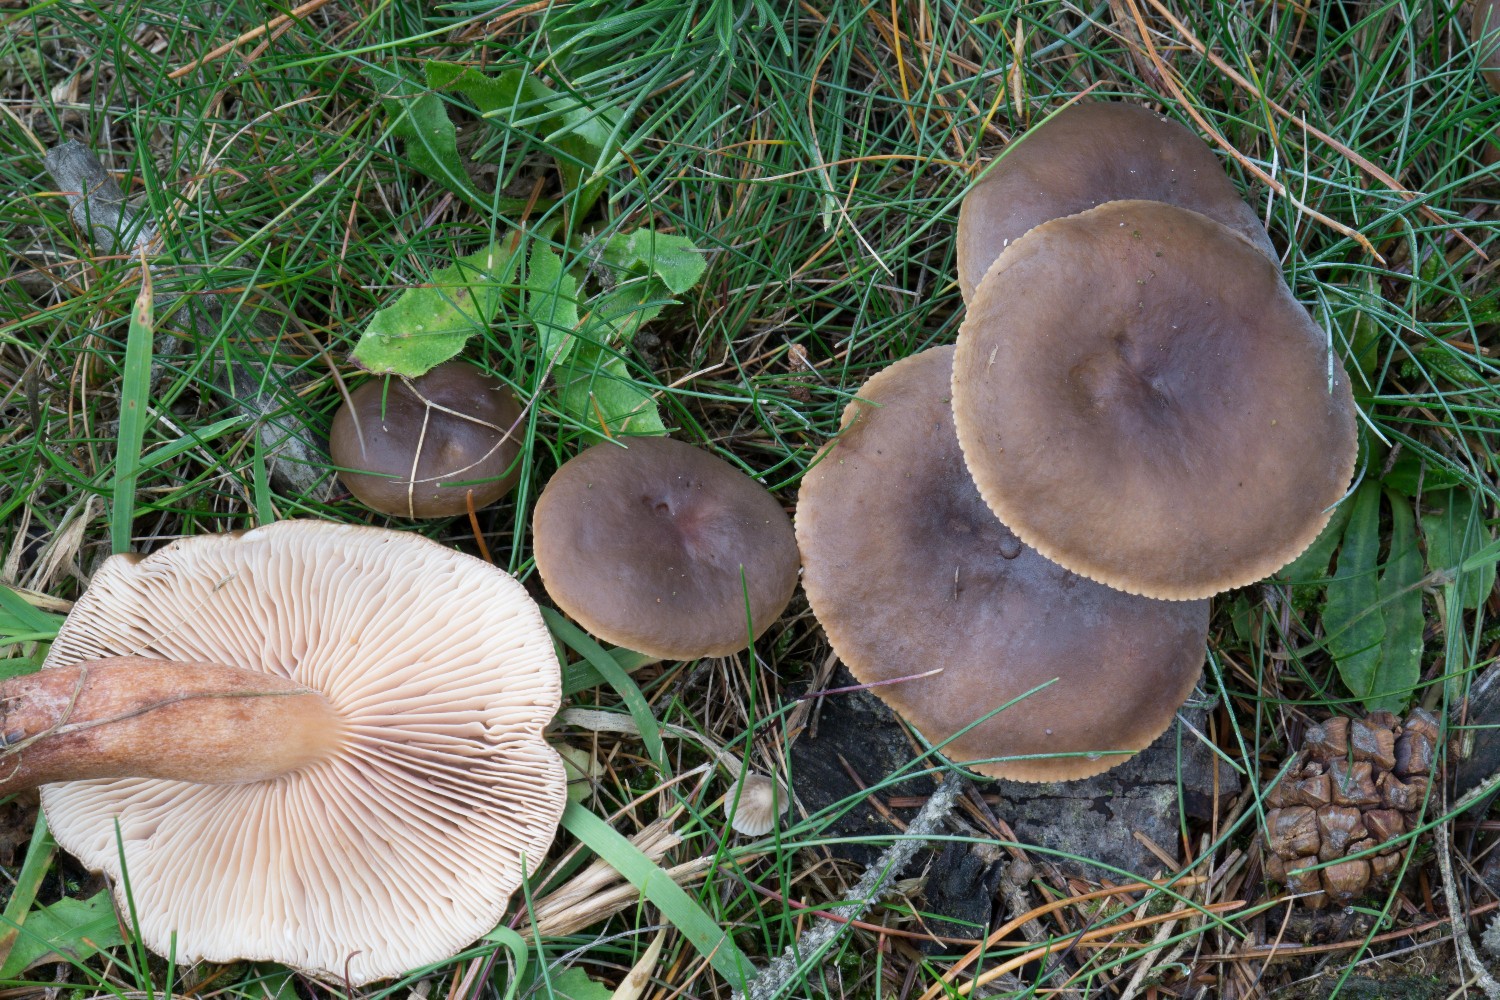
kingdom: Fungi
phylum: Basidiomycota
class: Agaricomycetes
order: Russulales
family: Russulaceae
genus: Lactarius
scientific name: Lactarius hepaticus
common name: leverbrun mælkehat
